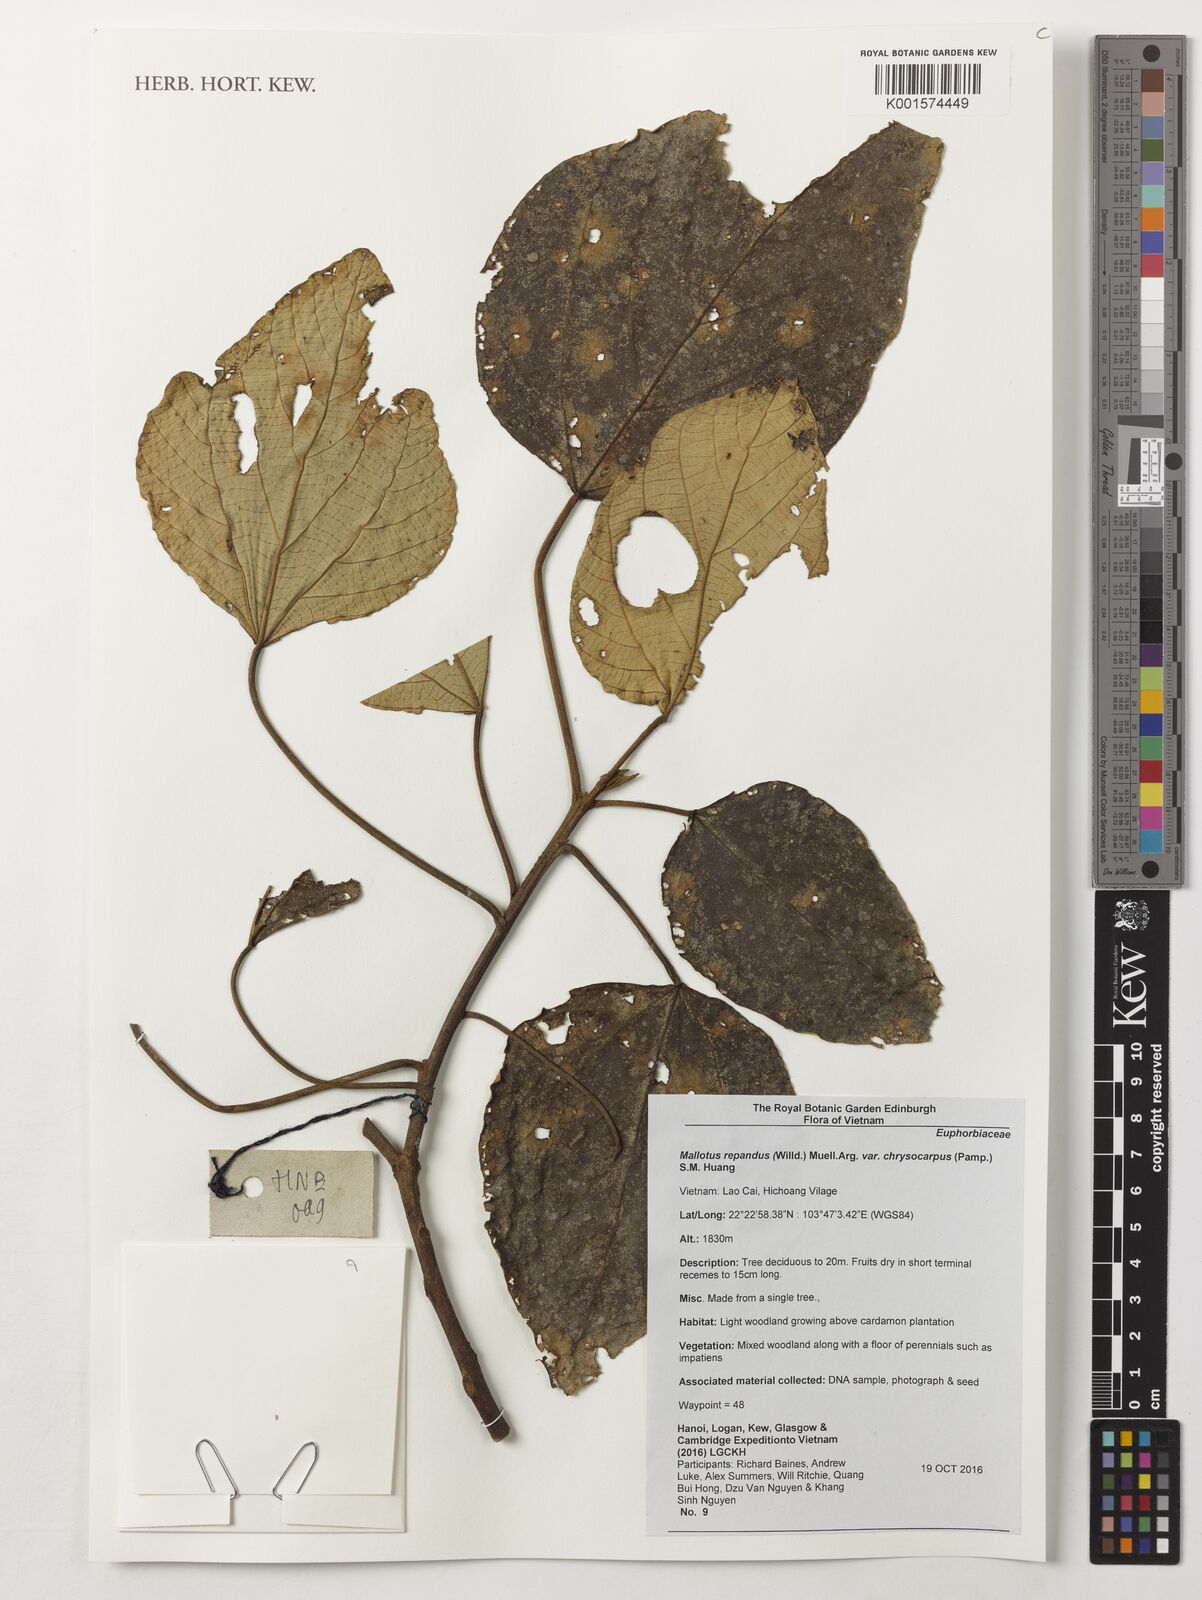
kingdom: Plantae
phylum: Tracheophyta
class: Magnoliopsida
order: Malpighiales
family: Euphorbiaceae
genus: Mallotus
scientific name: Mallotus repandus
